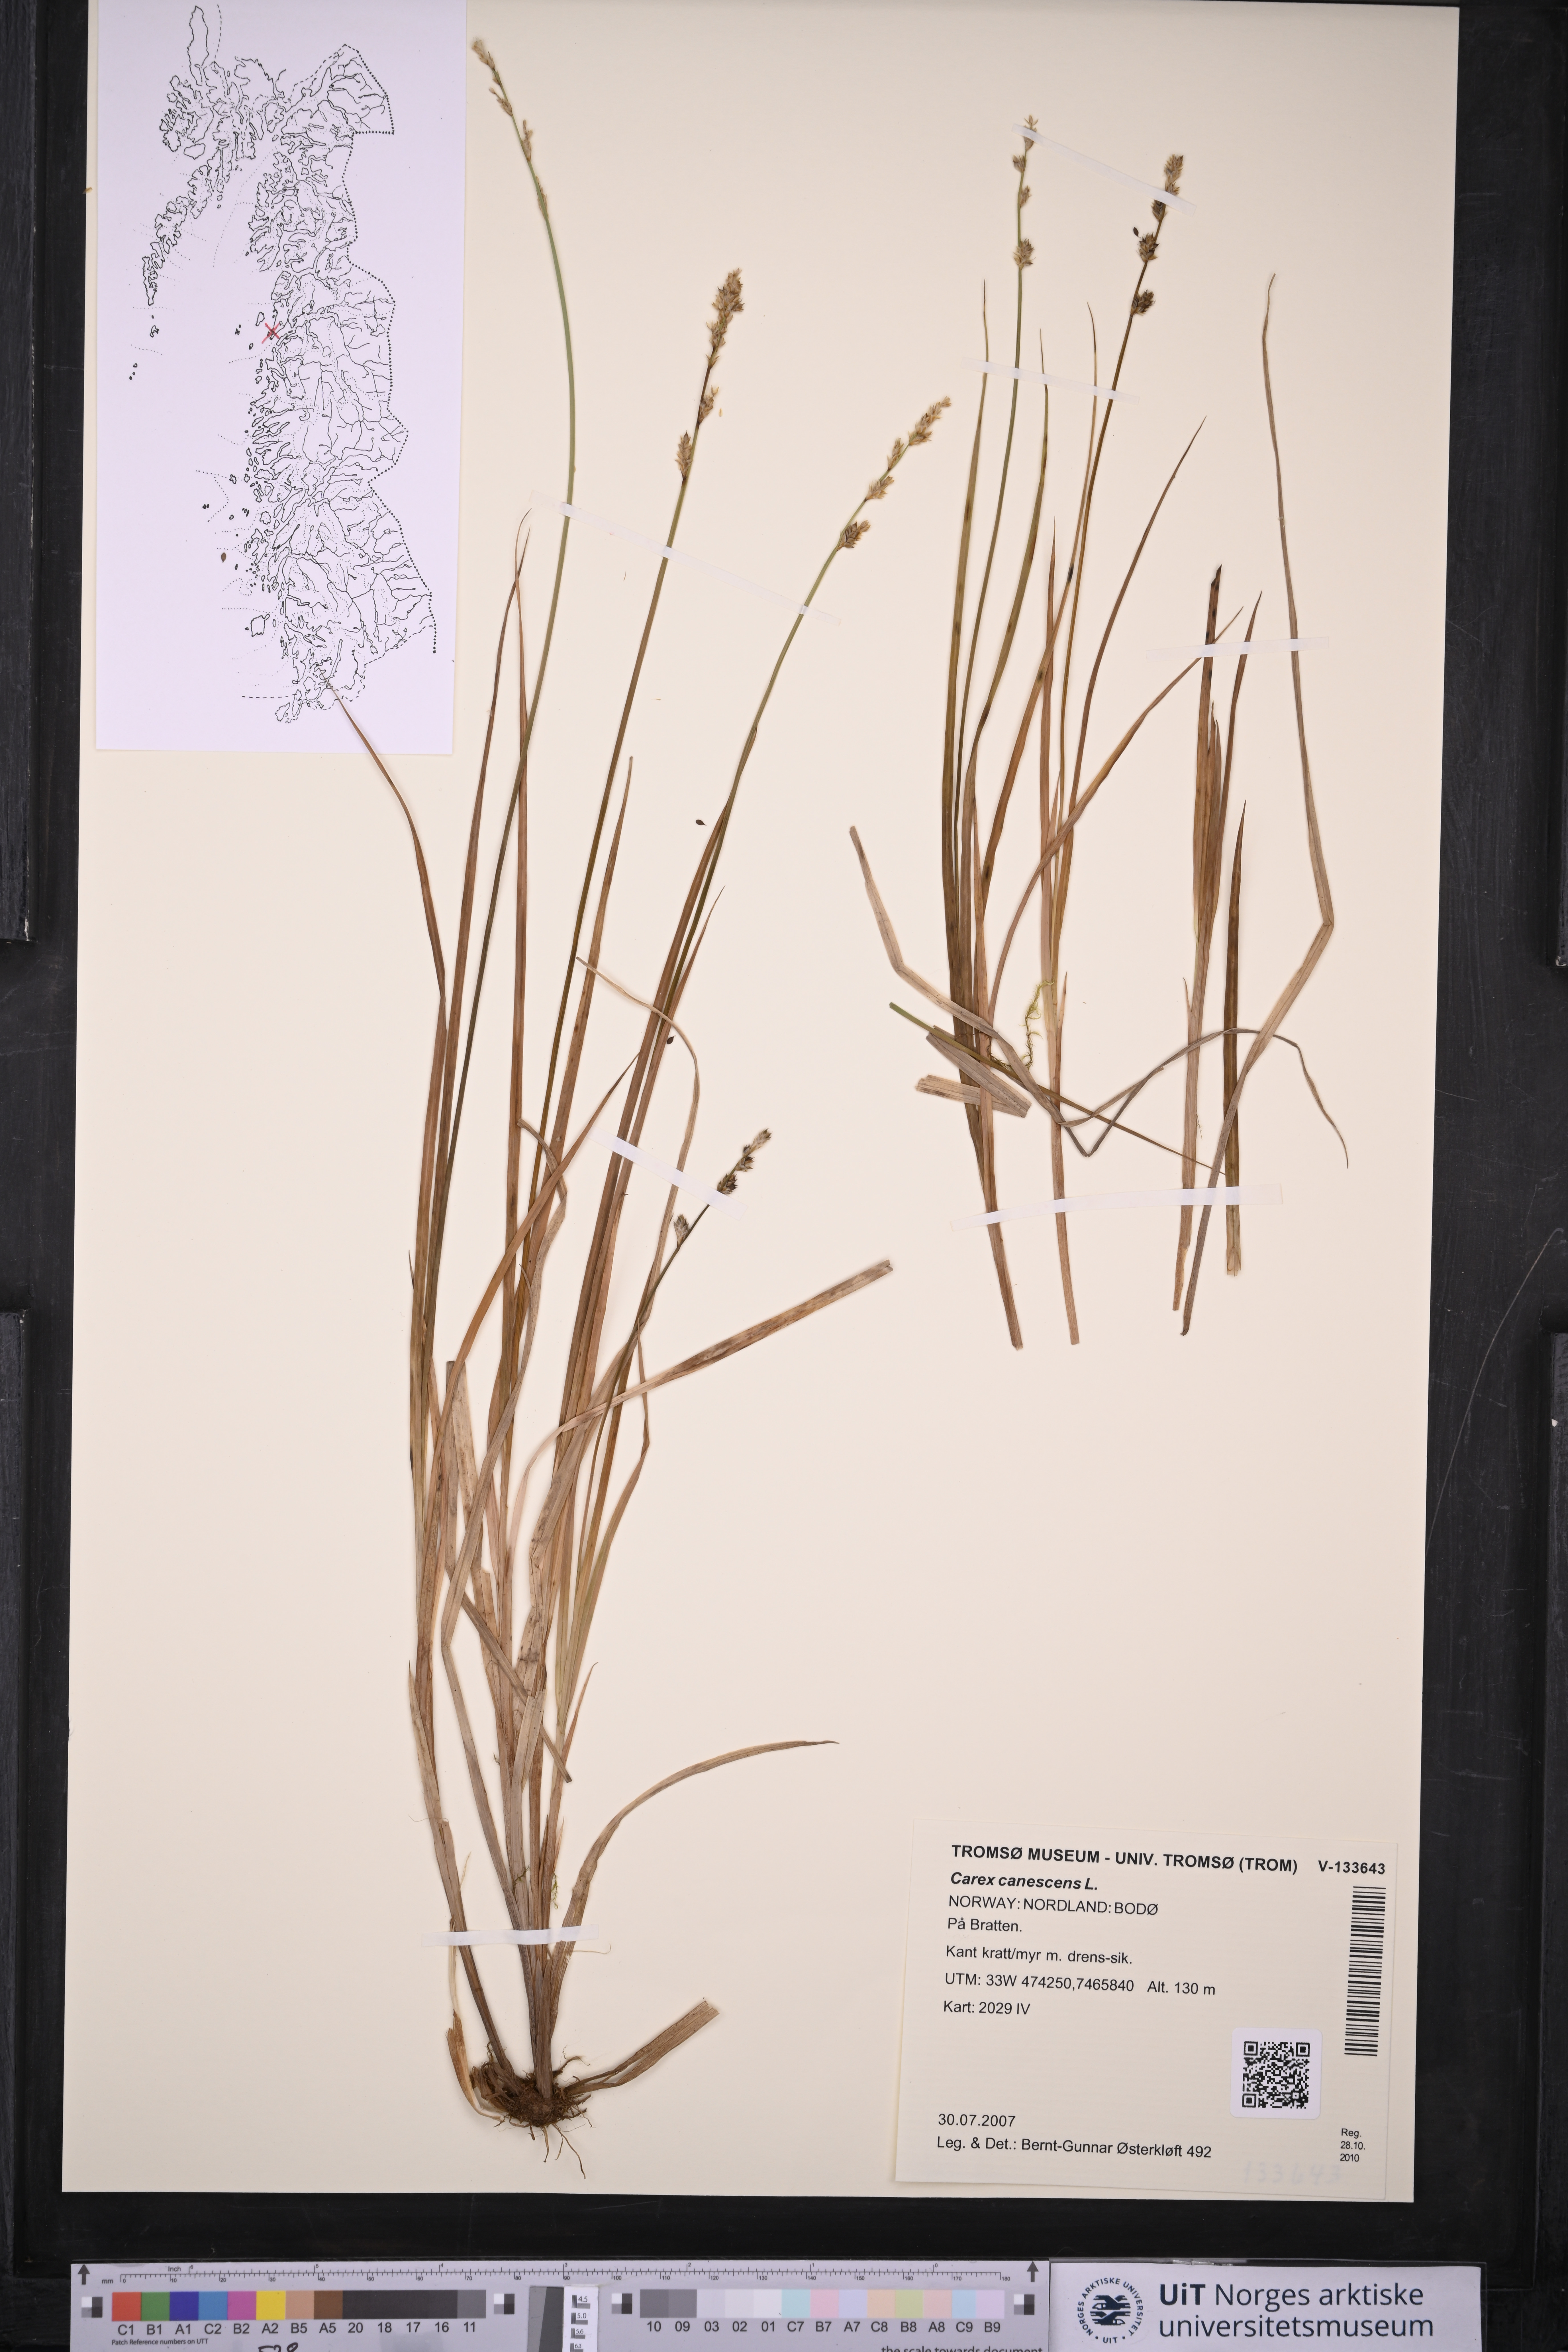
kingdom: Plantae
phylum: Tracheophyta
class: Liliopsida
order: Poales
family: Cyperaceae
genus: Carex
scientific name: Carex canescens
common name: White sedge
